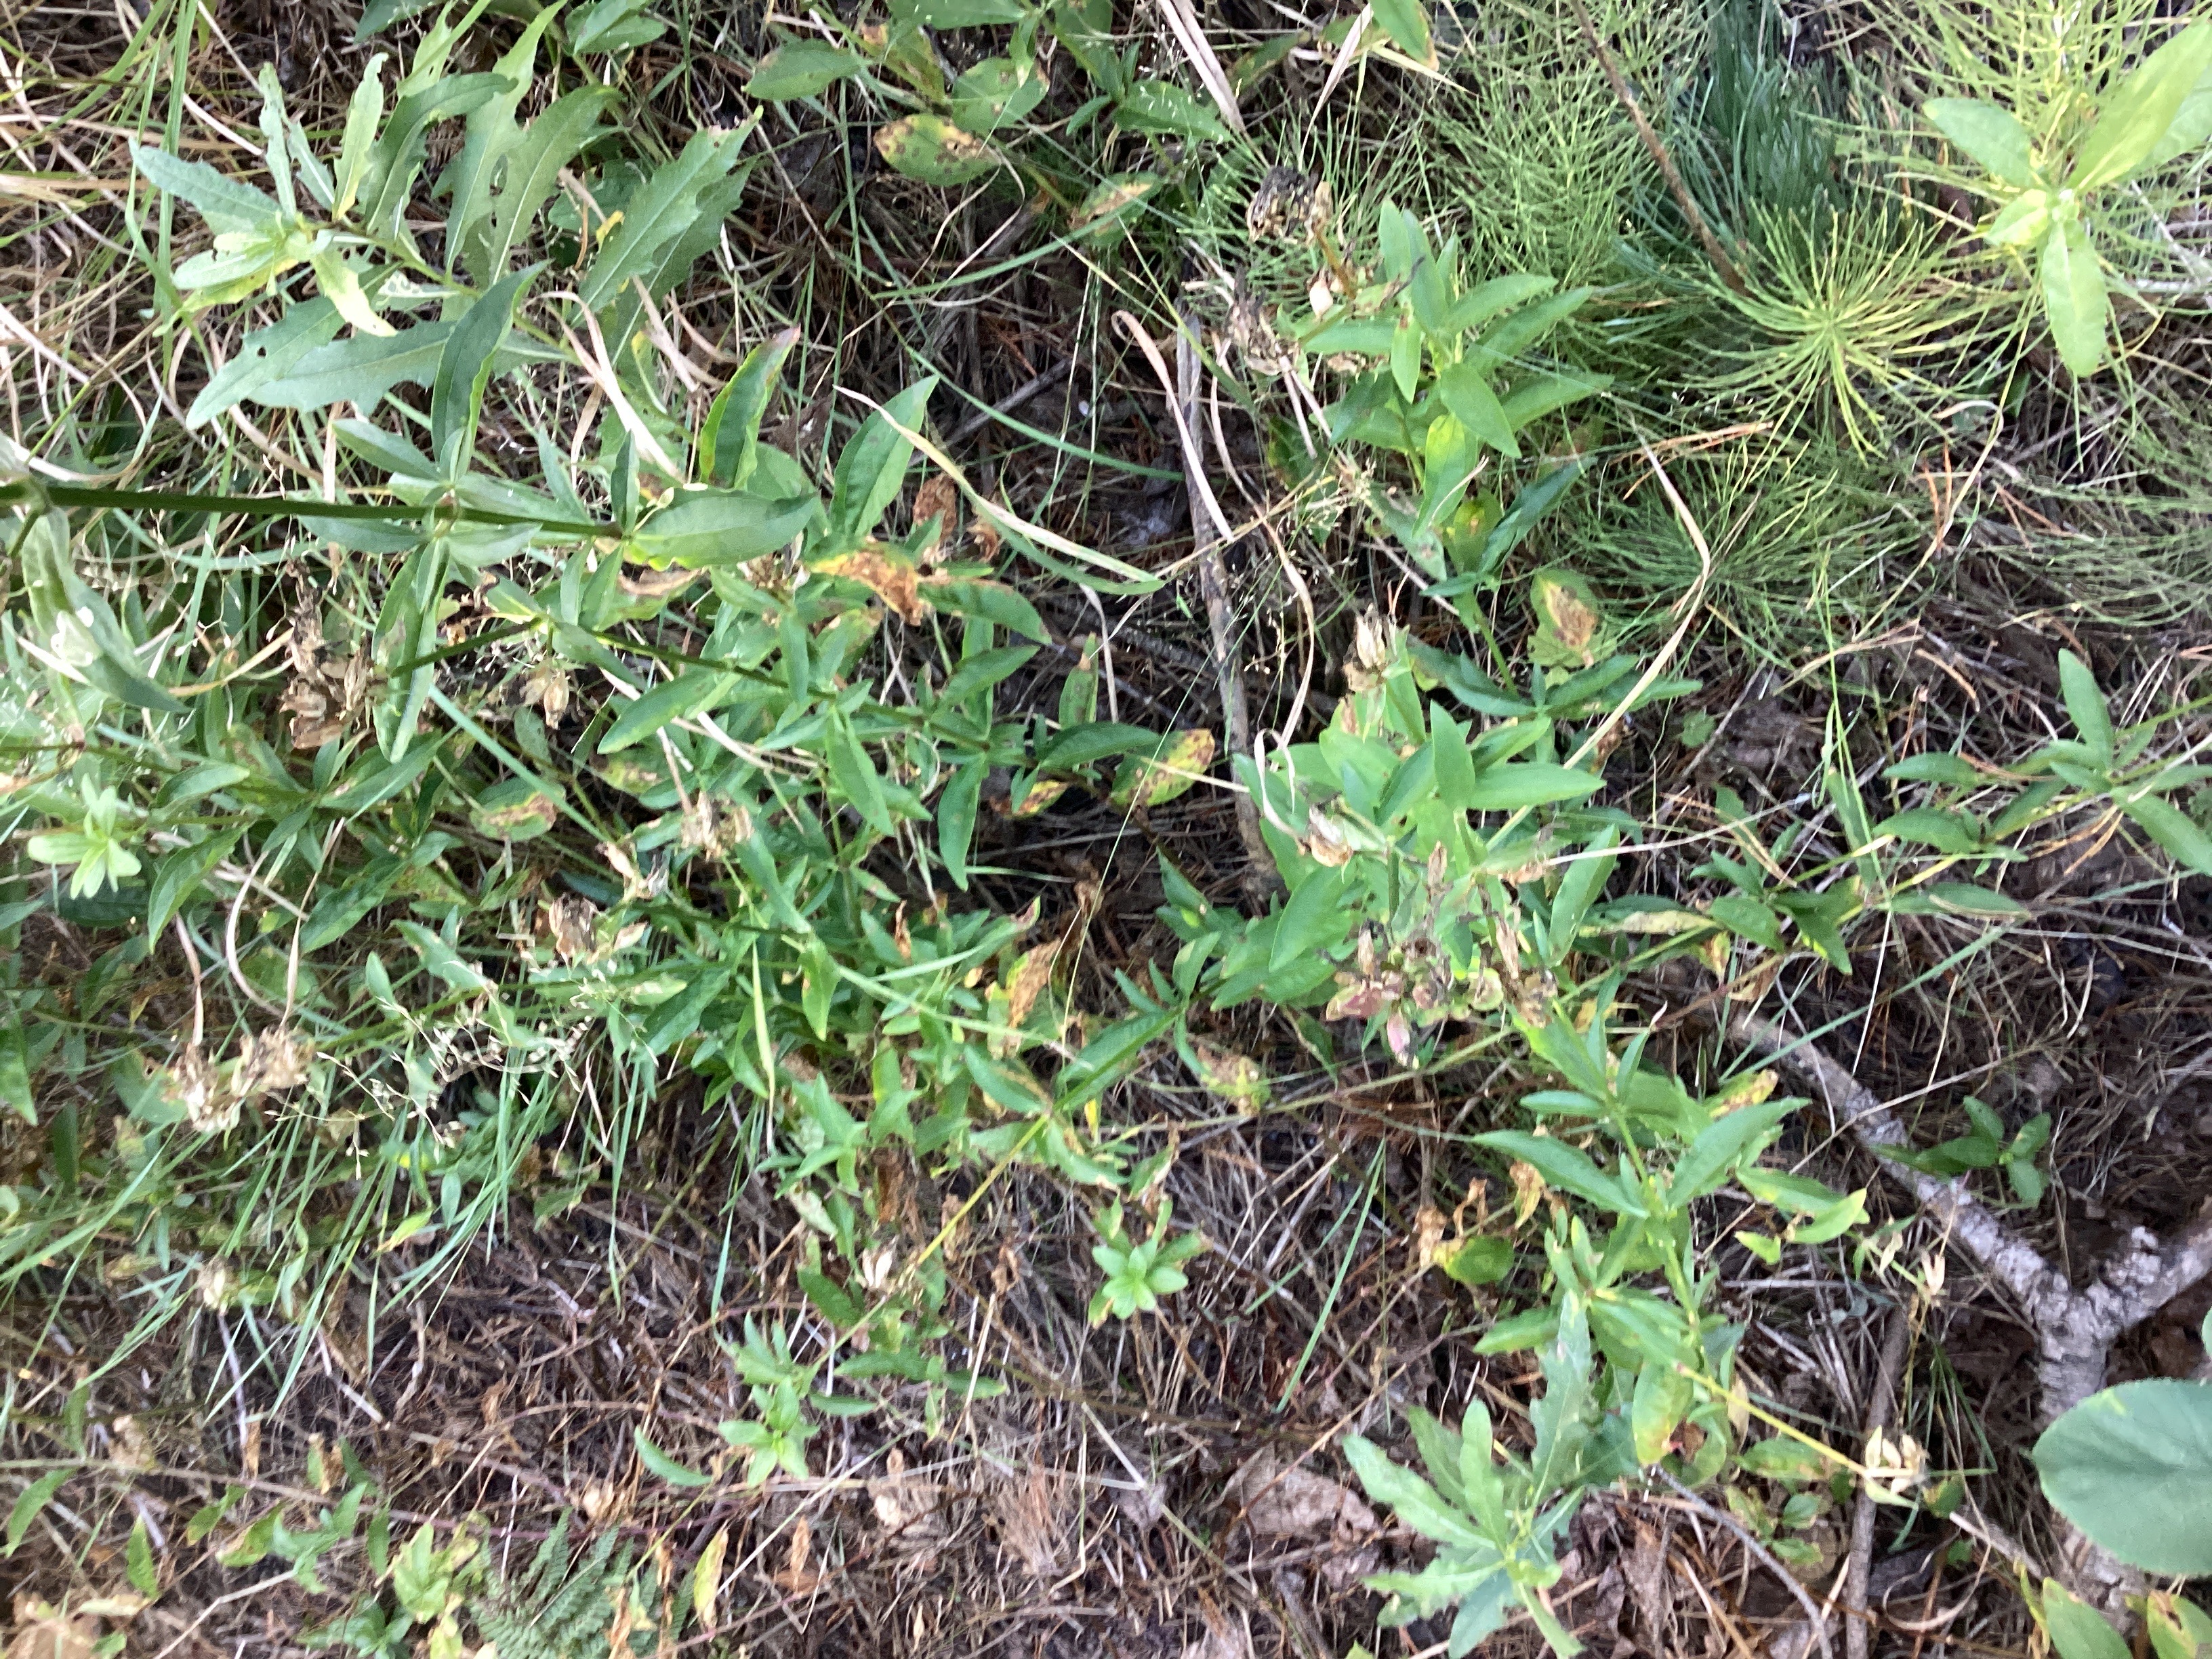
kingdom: Plantae
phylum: Tracheophyta
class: Magnoliopsida
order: Caryophyllales
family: Caryophyllaceae
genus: Saponaria
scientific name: Saponaria officinalis
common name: såpeurt
